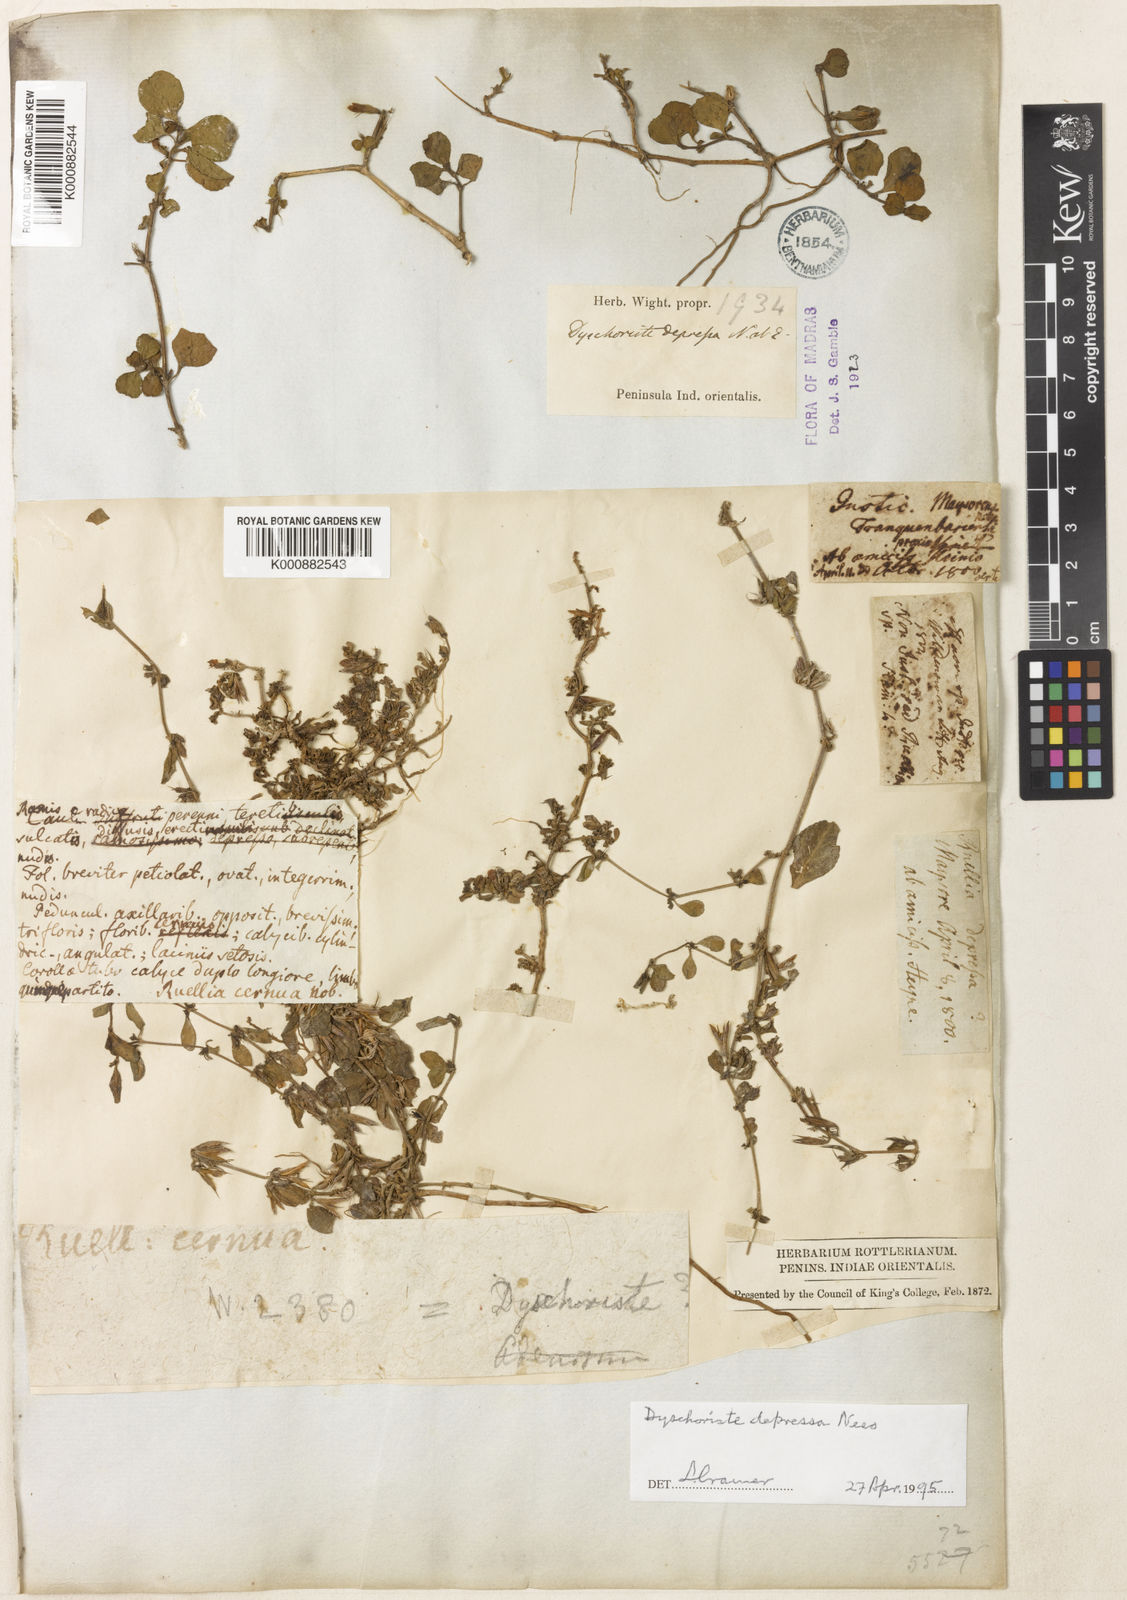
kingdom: Plantae
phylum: Tracheophyta
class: Magnoliopsida
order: Lamiales
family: Acanthaceae
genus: Dyschoriste
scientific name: Dyschoriste nagchana
